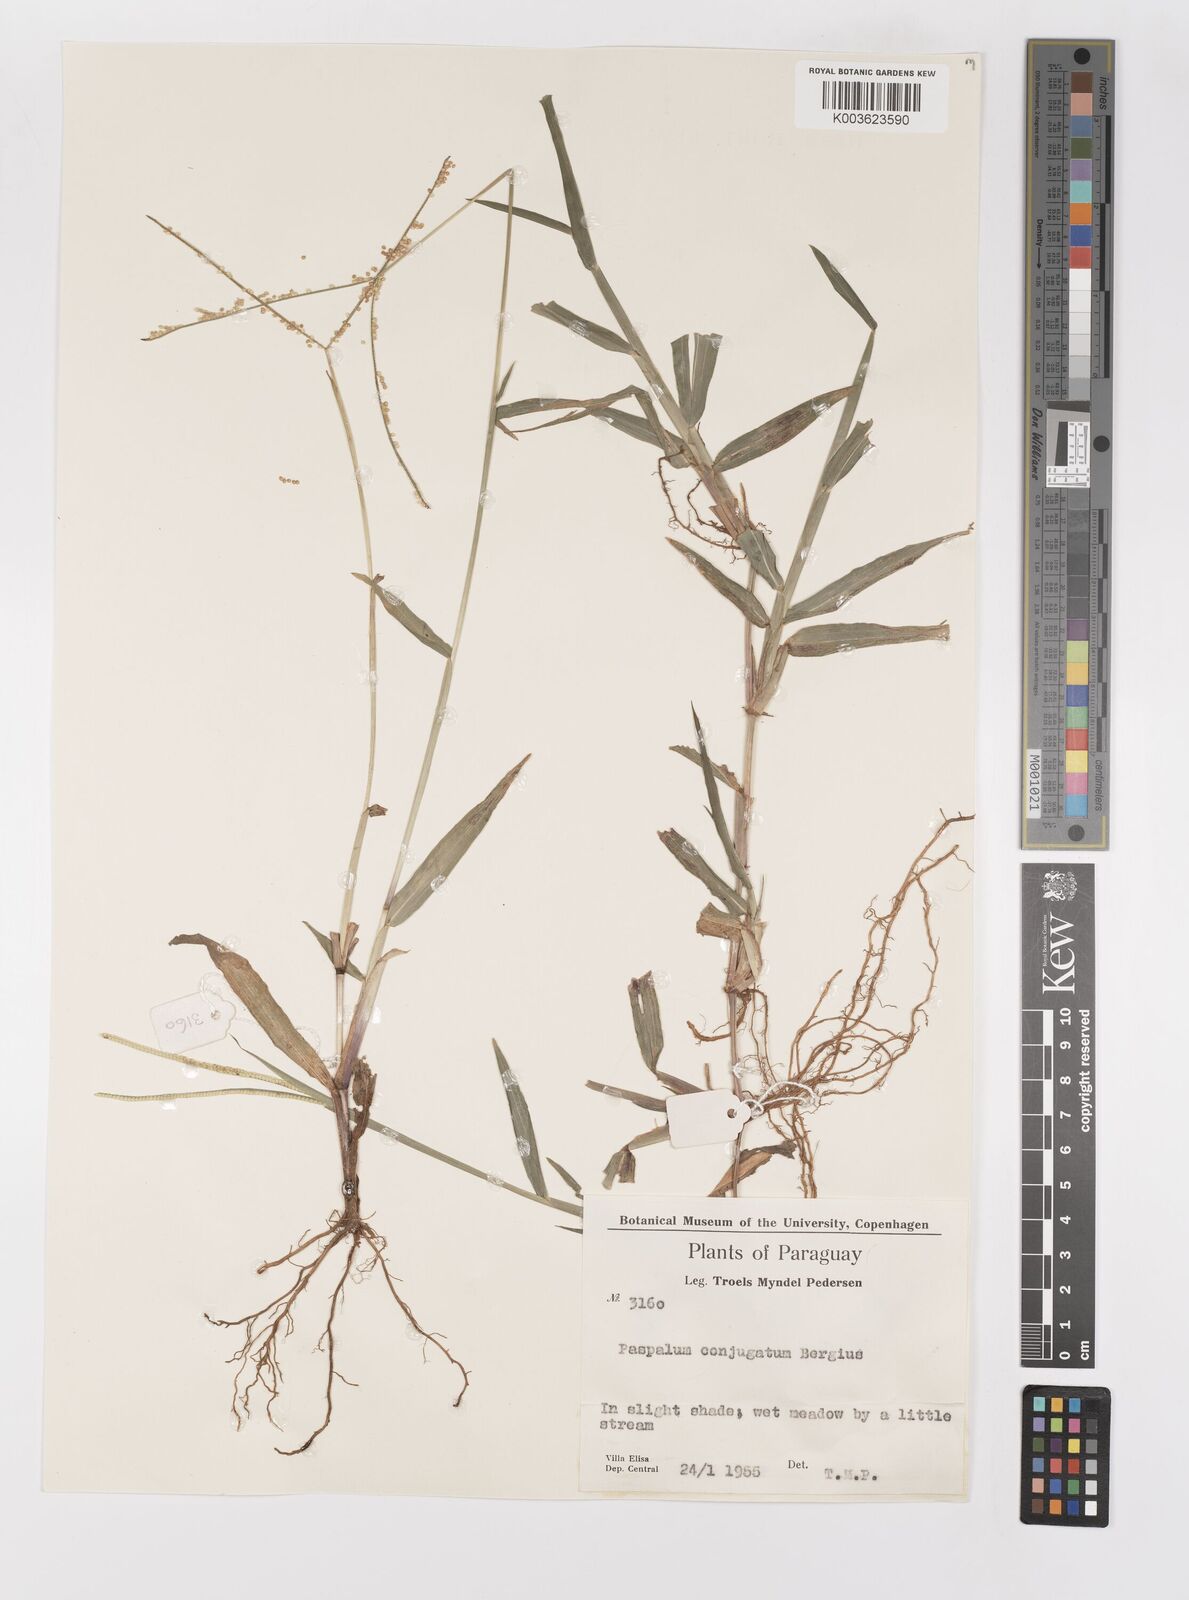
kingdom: Plantae
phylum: Tracheophyta
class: Liliopsida
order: Poales
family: Poaceae
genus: Paspalum
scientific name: Paspalum conjugatum
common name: Hilograss
